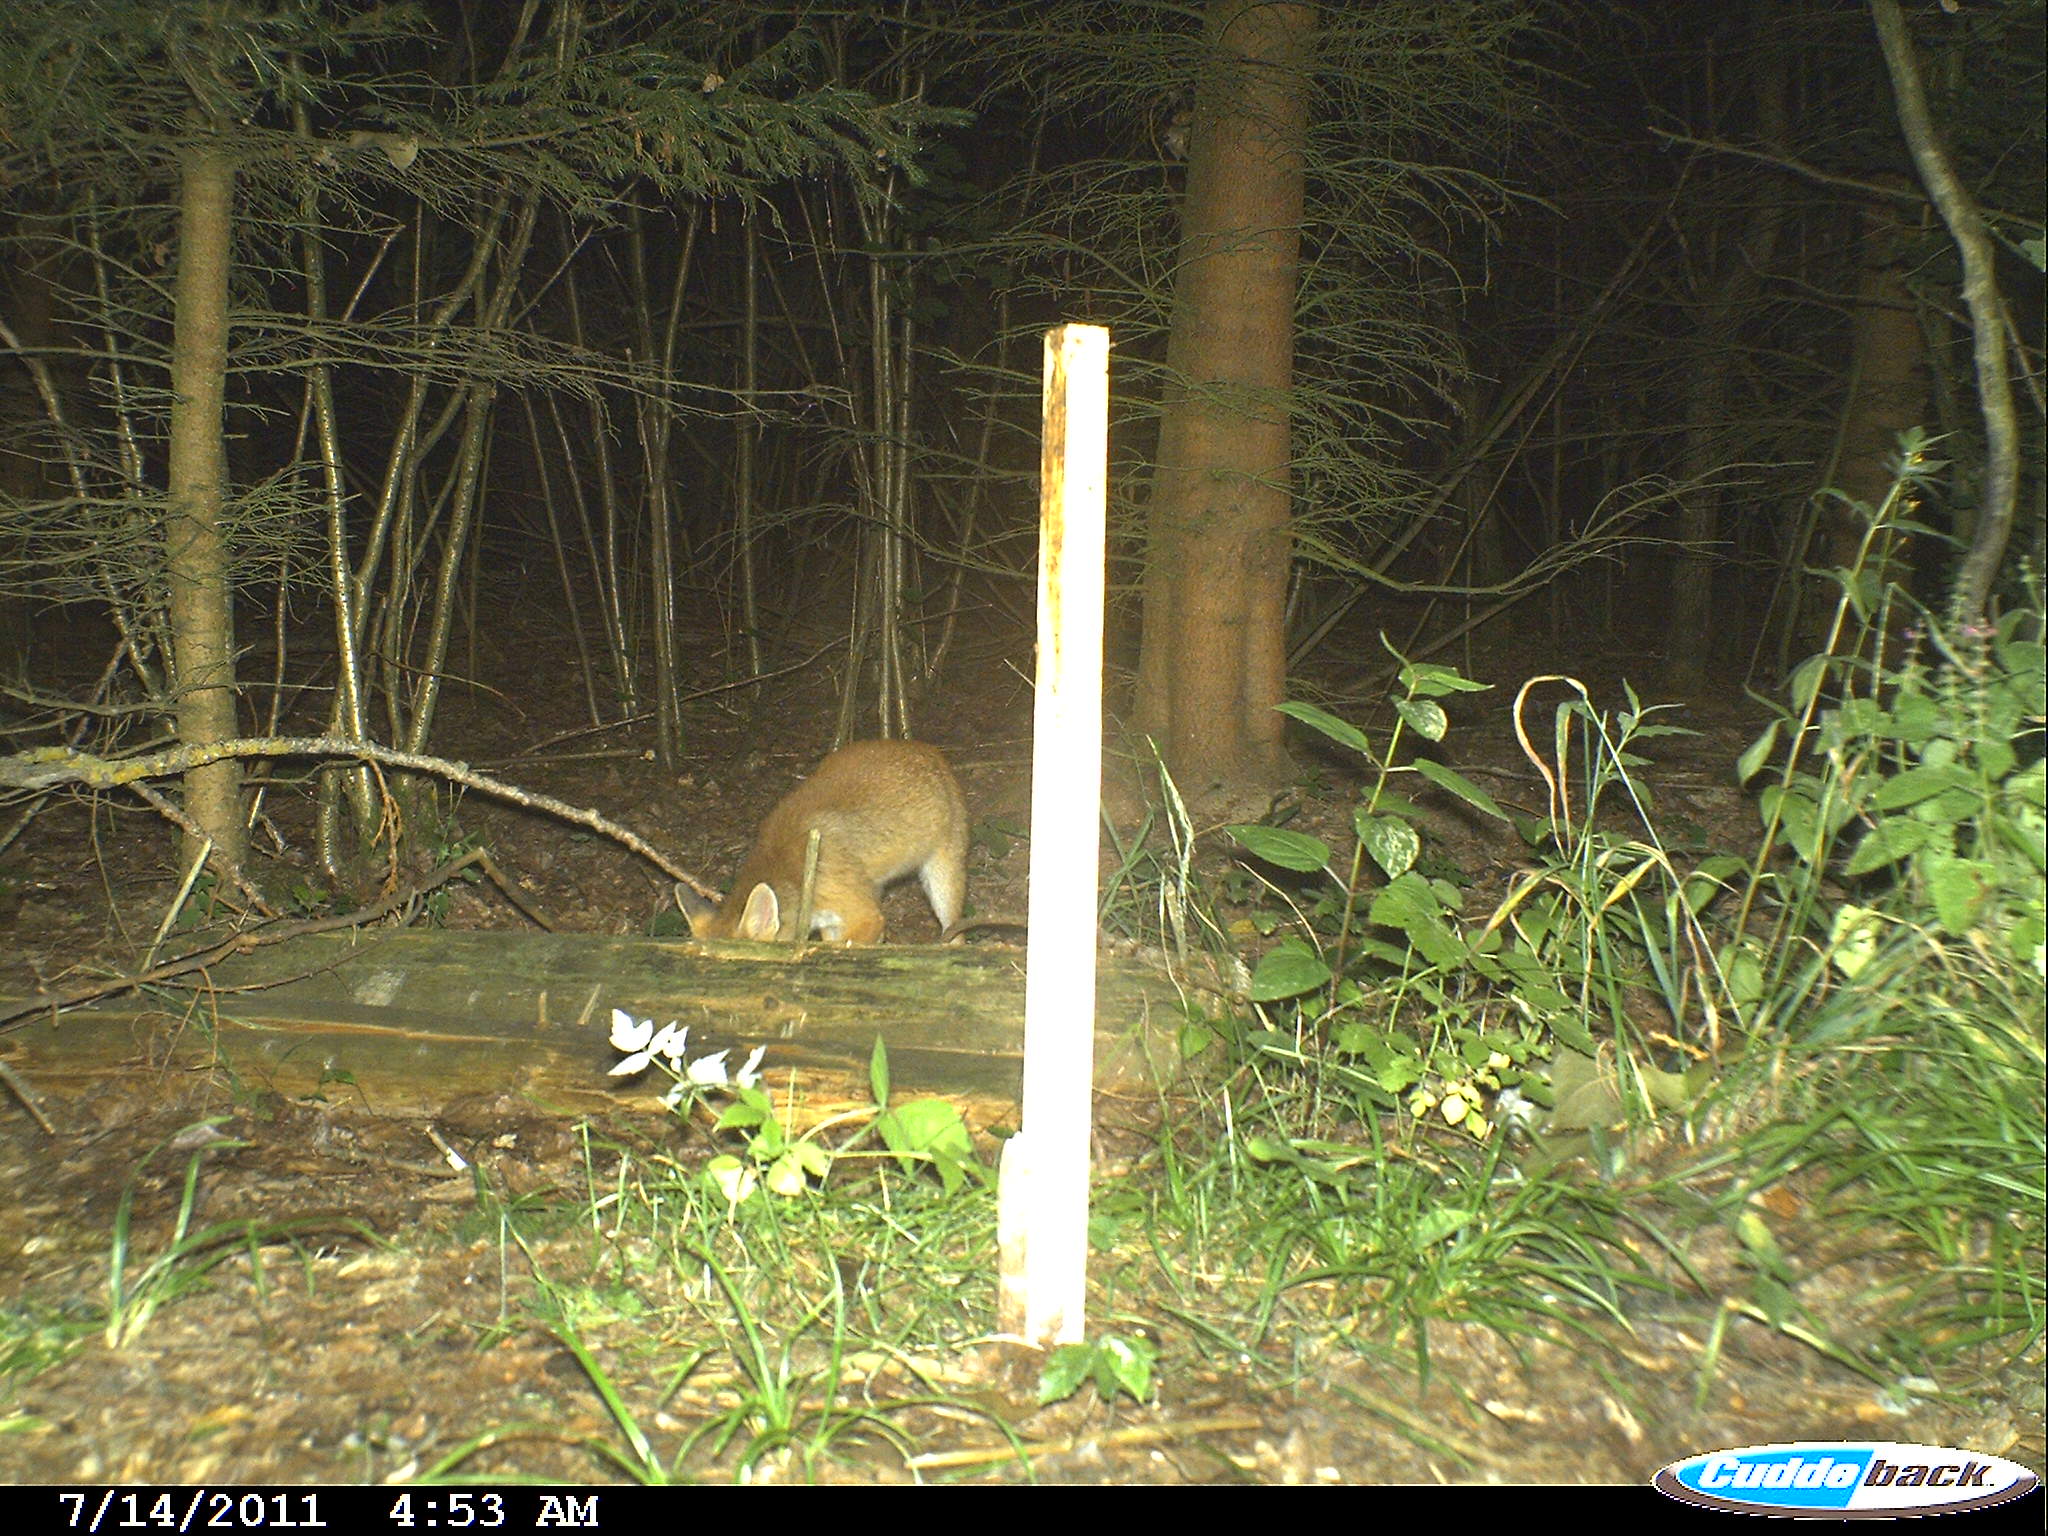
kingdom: Animalia
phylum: Chordata
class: Mammalia
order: Carnivora
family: Canidae
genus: Vulpes
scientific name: Vulpes vulpes
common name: Red fox
